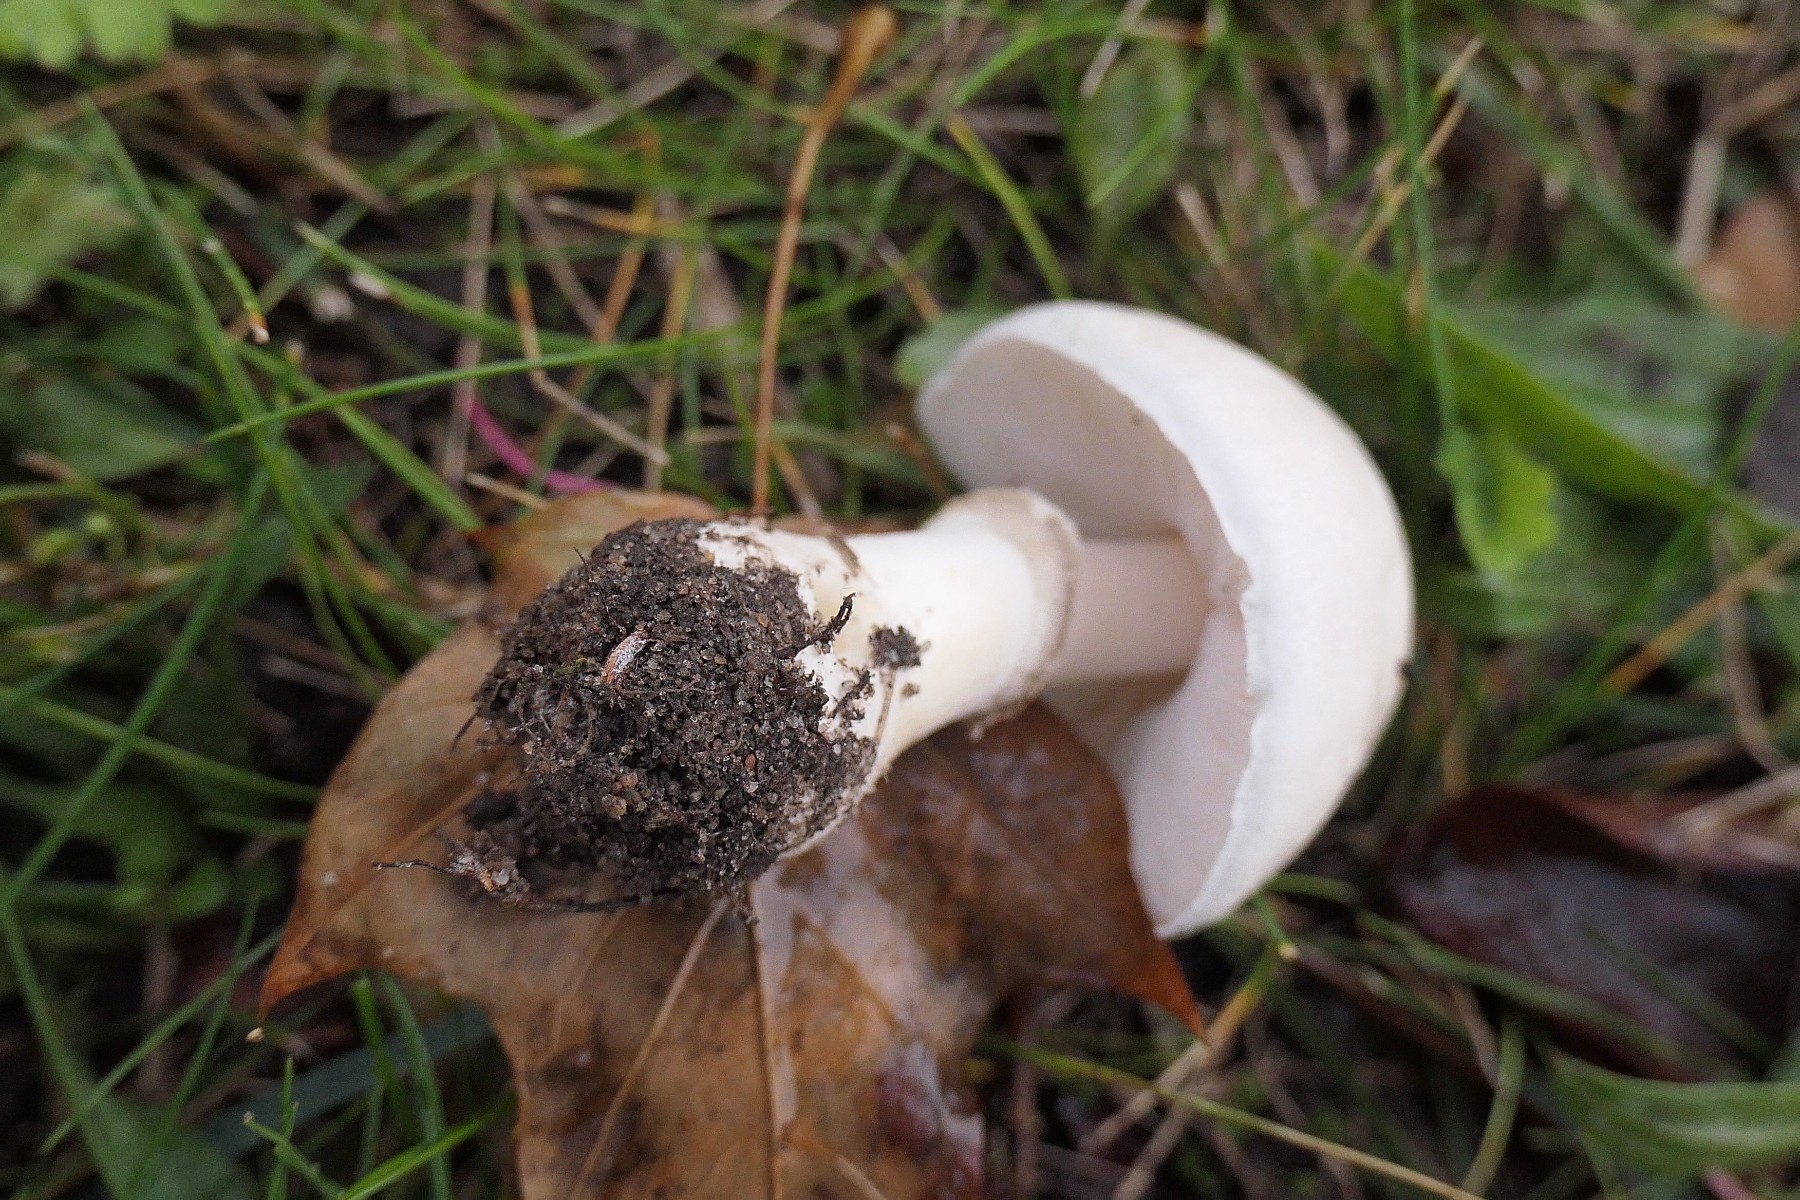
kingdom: Fungi
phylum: Basidiomycota
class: Agaricomycetes
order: Agaricales
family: Agaricaceae
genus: Leucoagaricus
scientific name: Leucoagaricus leucothites
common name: rosabladet silkehat
